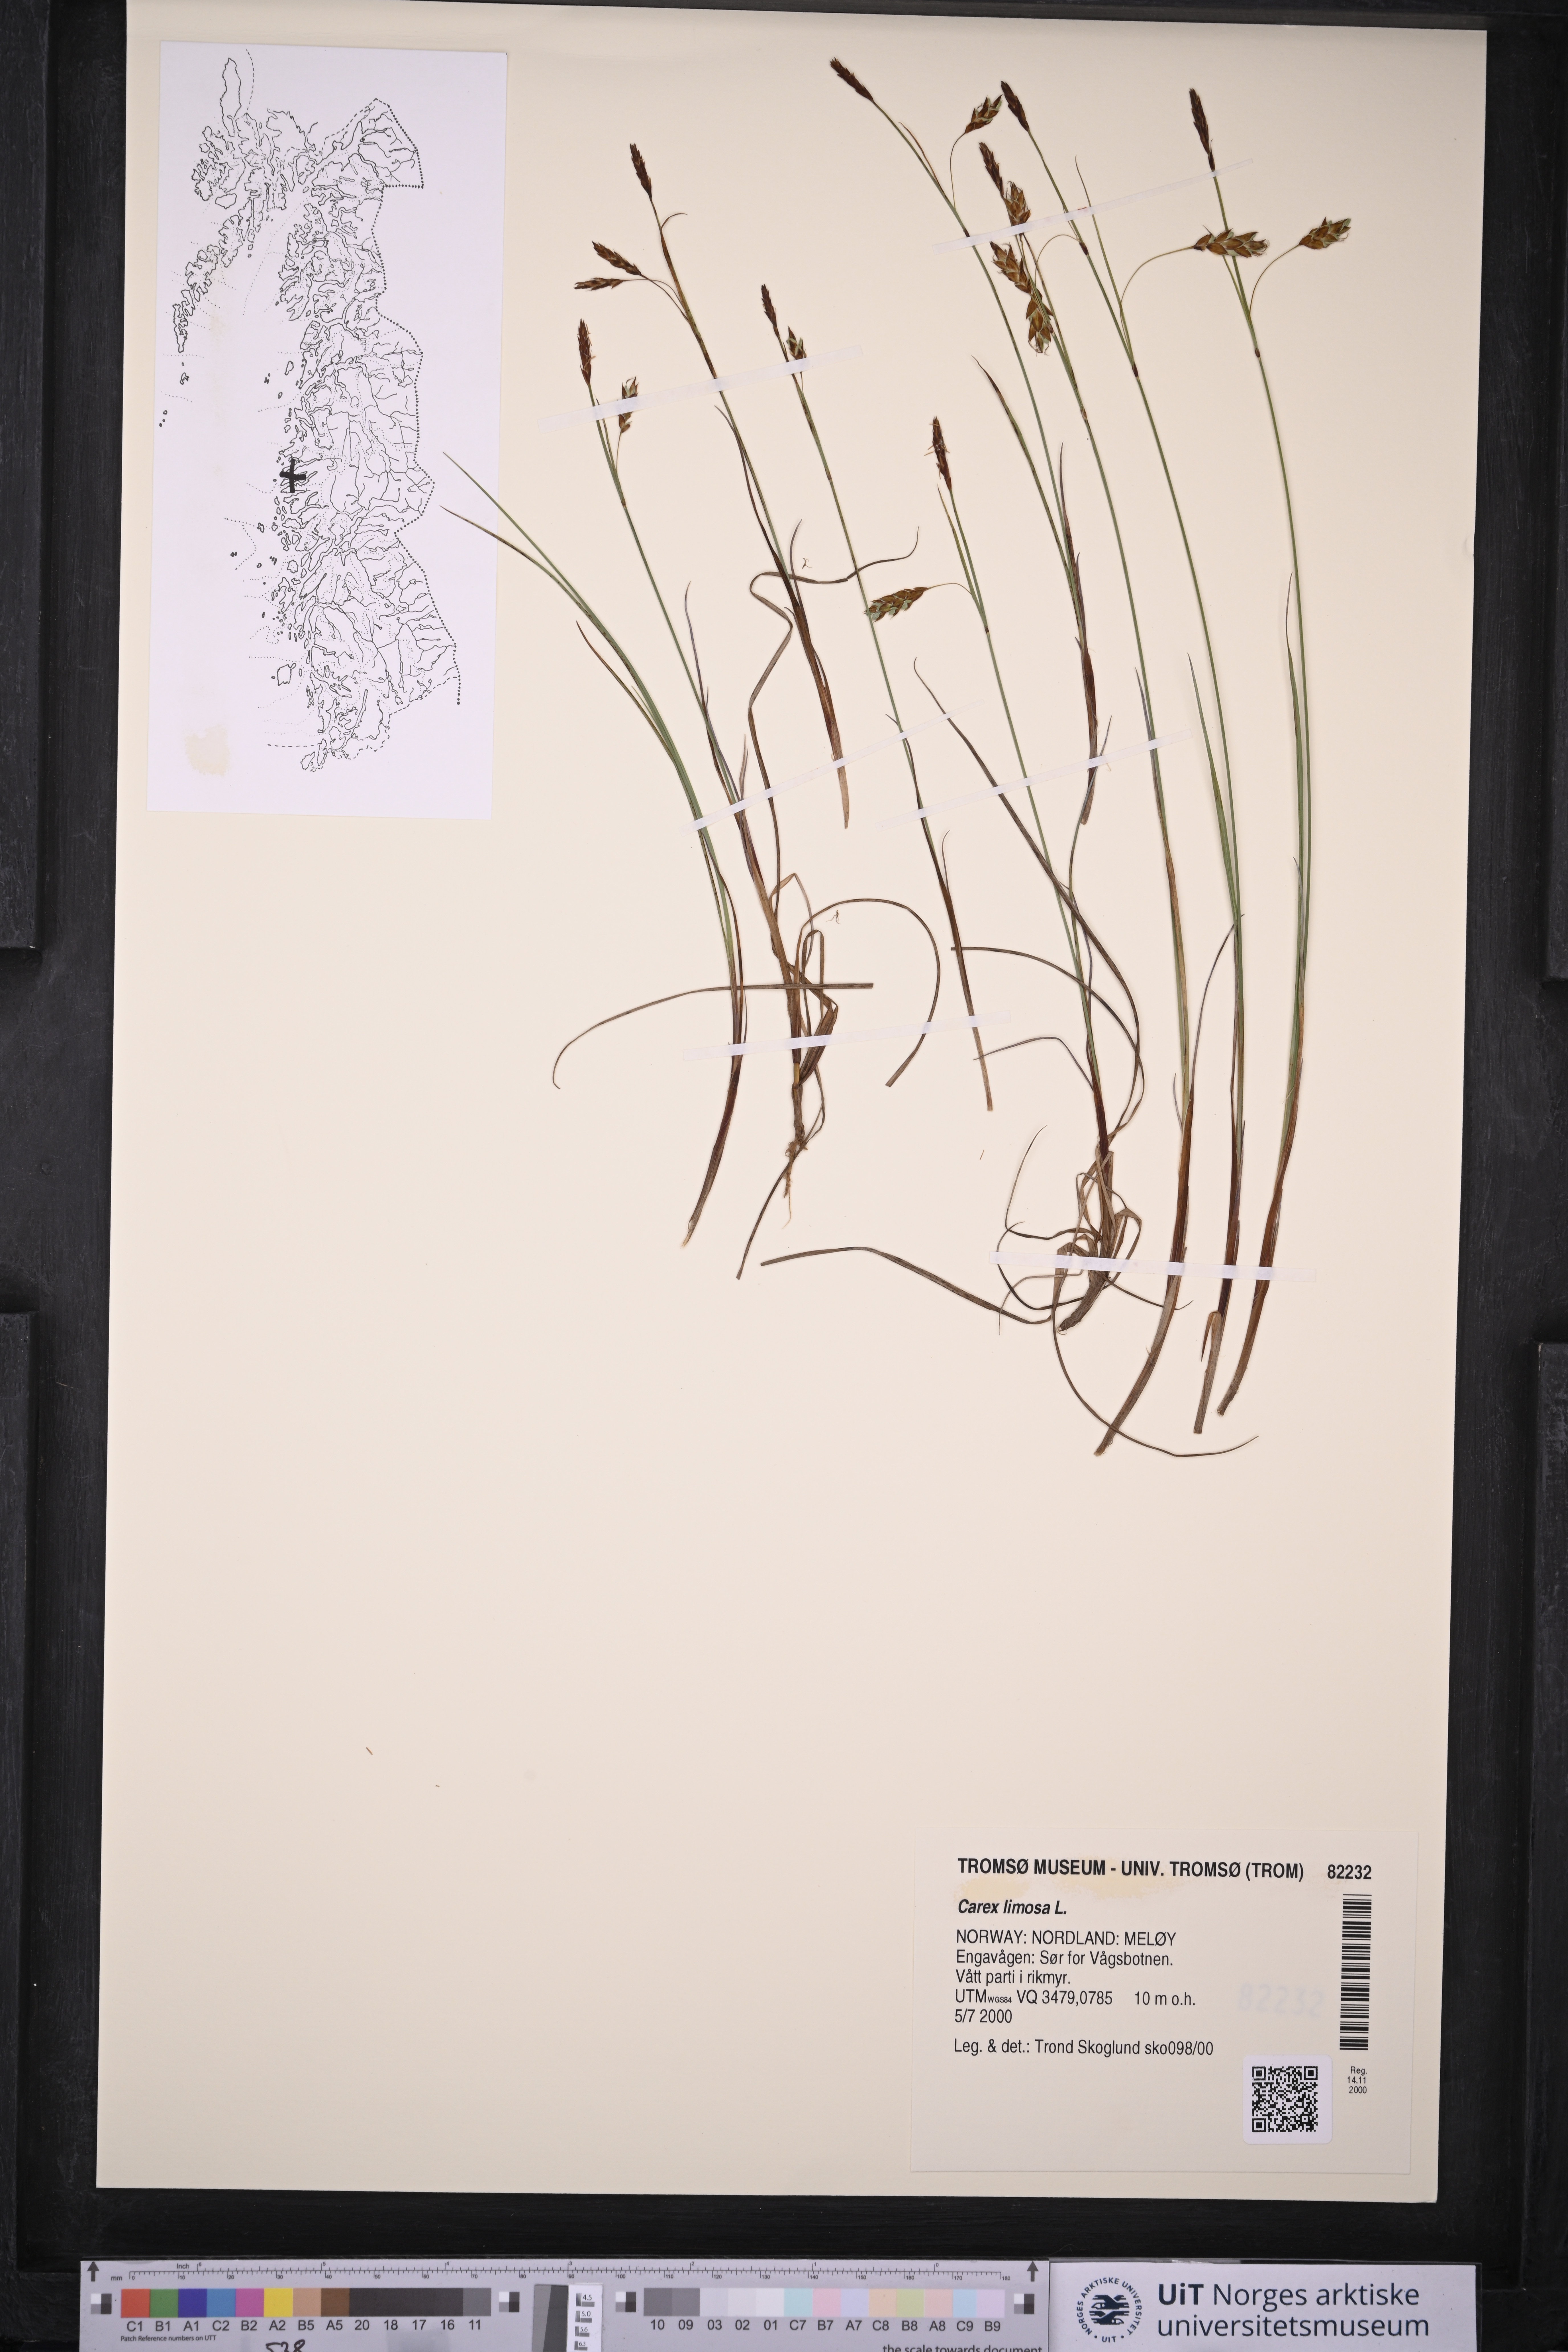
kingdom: Plantae
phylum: Tracheophyta
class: Liliopsida
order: Poales
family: Cyperaceae
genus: Carex
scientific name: Carex limosa
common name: Bog sedge
